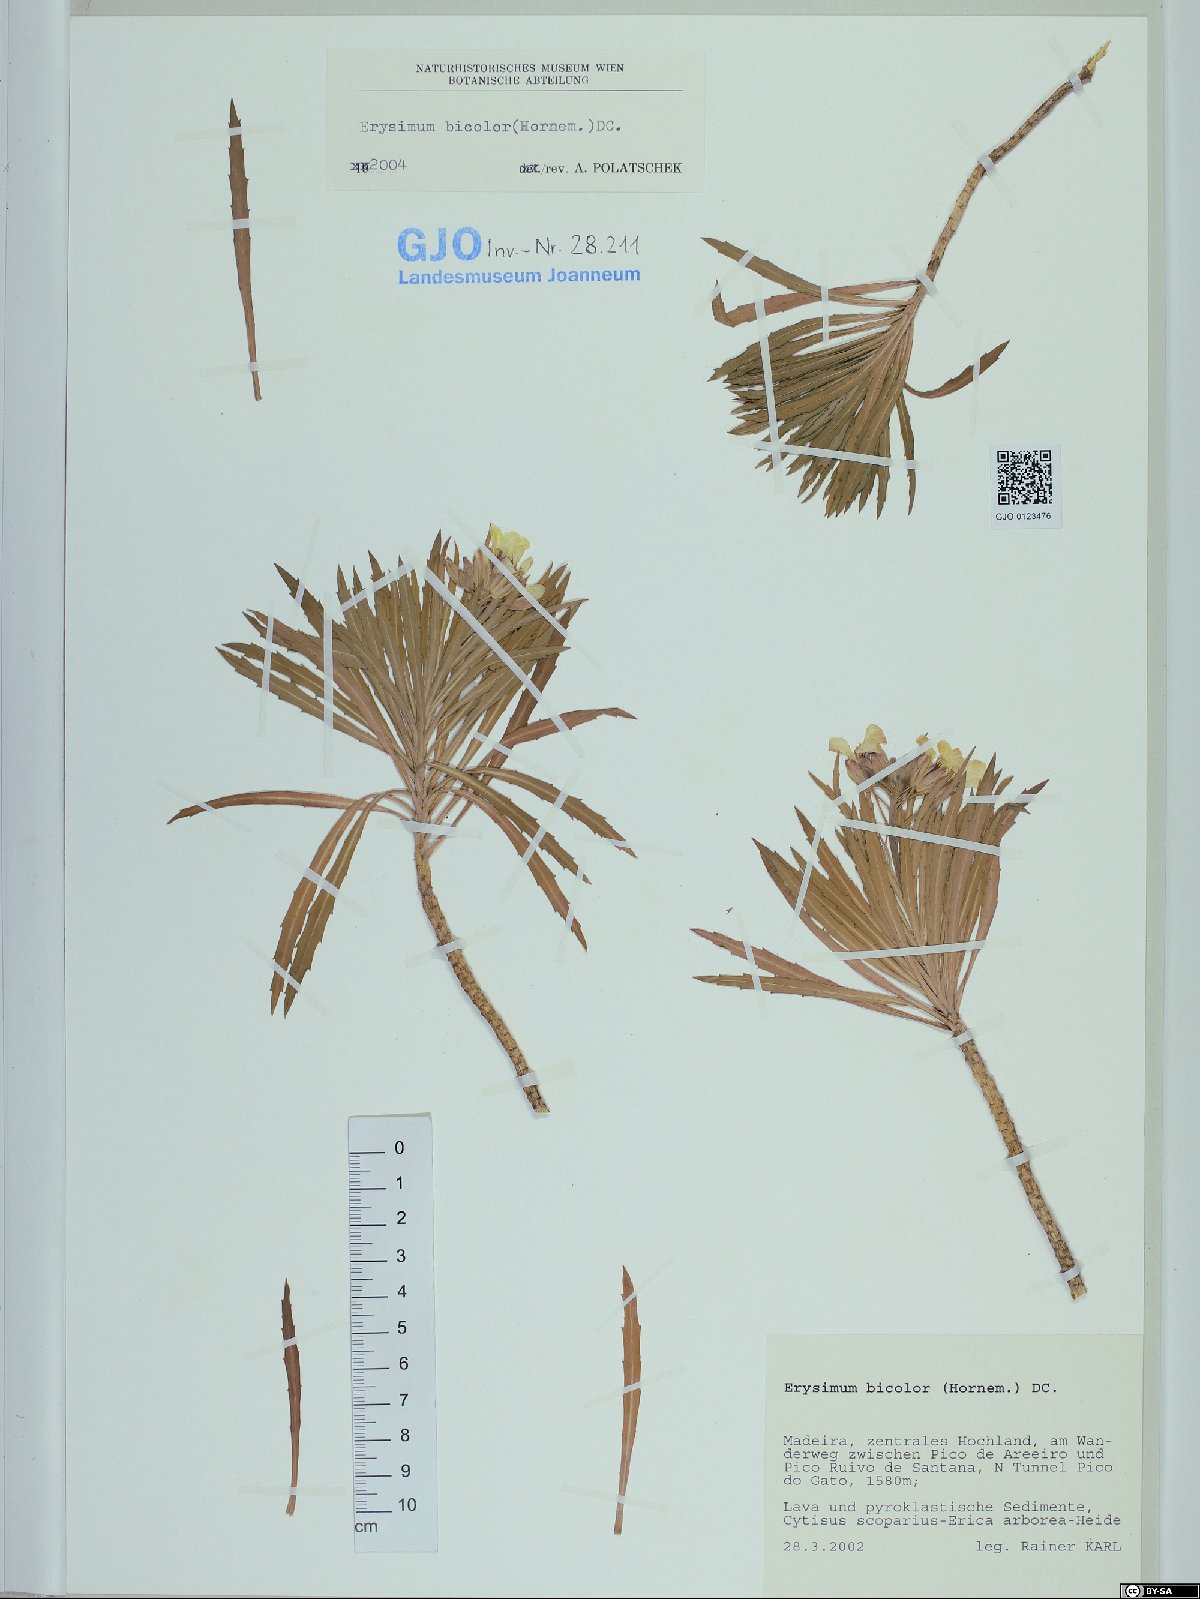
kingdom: Plantae
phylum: Tracheophyta
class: Magnoliopsida
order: Brassicales
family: Brassicaceae
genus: Erysimum
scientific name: Erysimum bicolor
